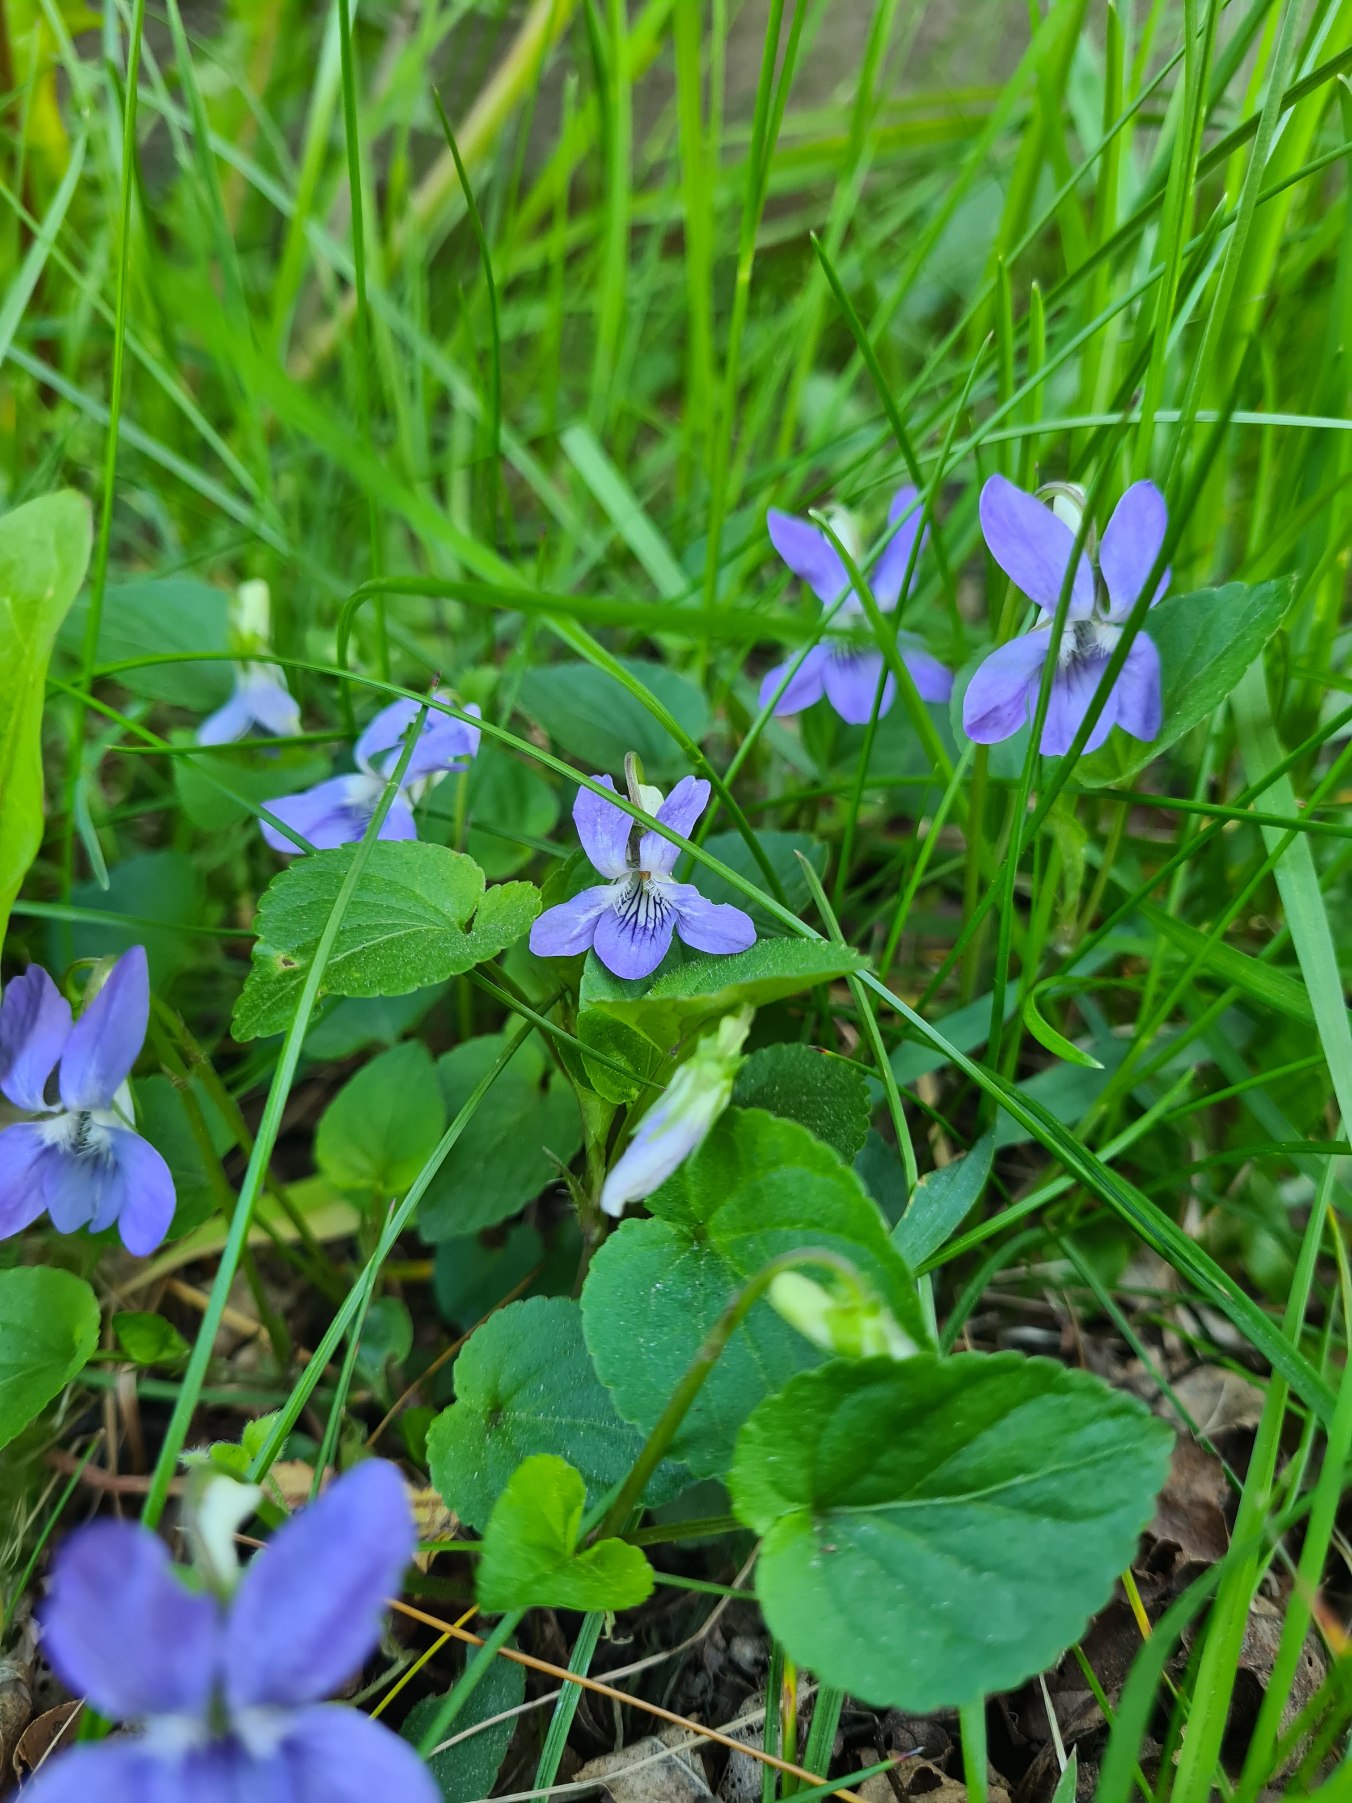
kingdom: Plantae
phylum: Tracheophyta
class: Magnoliopsida
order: Malpighiales
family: Violaceae
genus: Viola
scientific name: Viola riviniana
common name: Krat-viol
